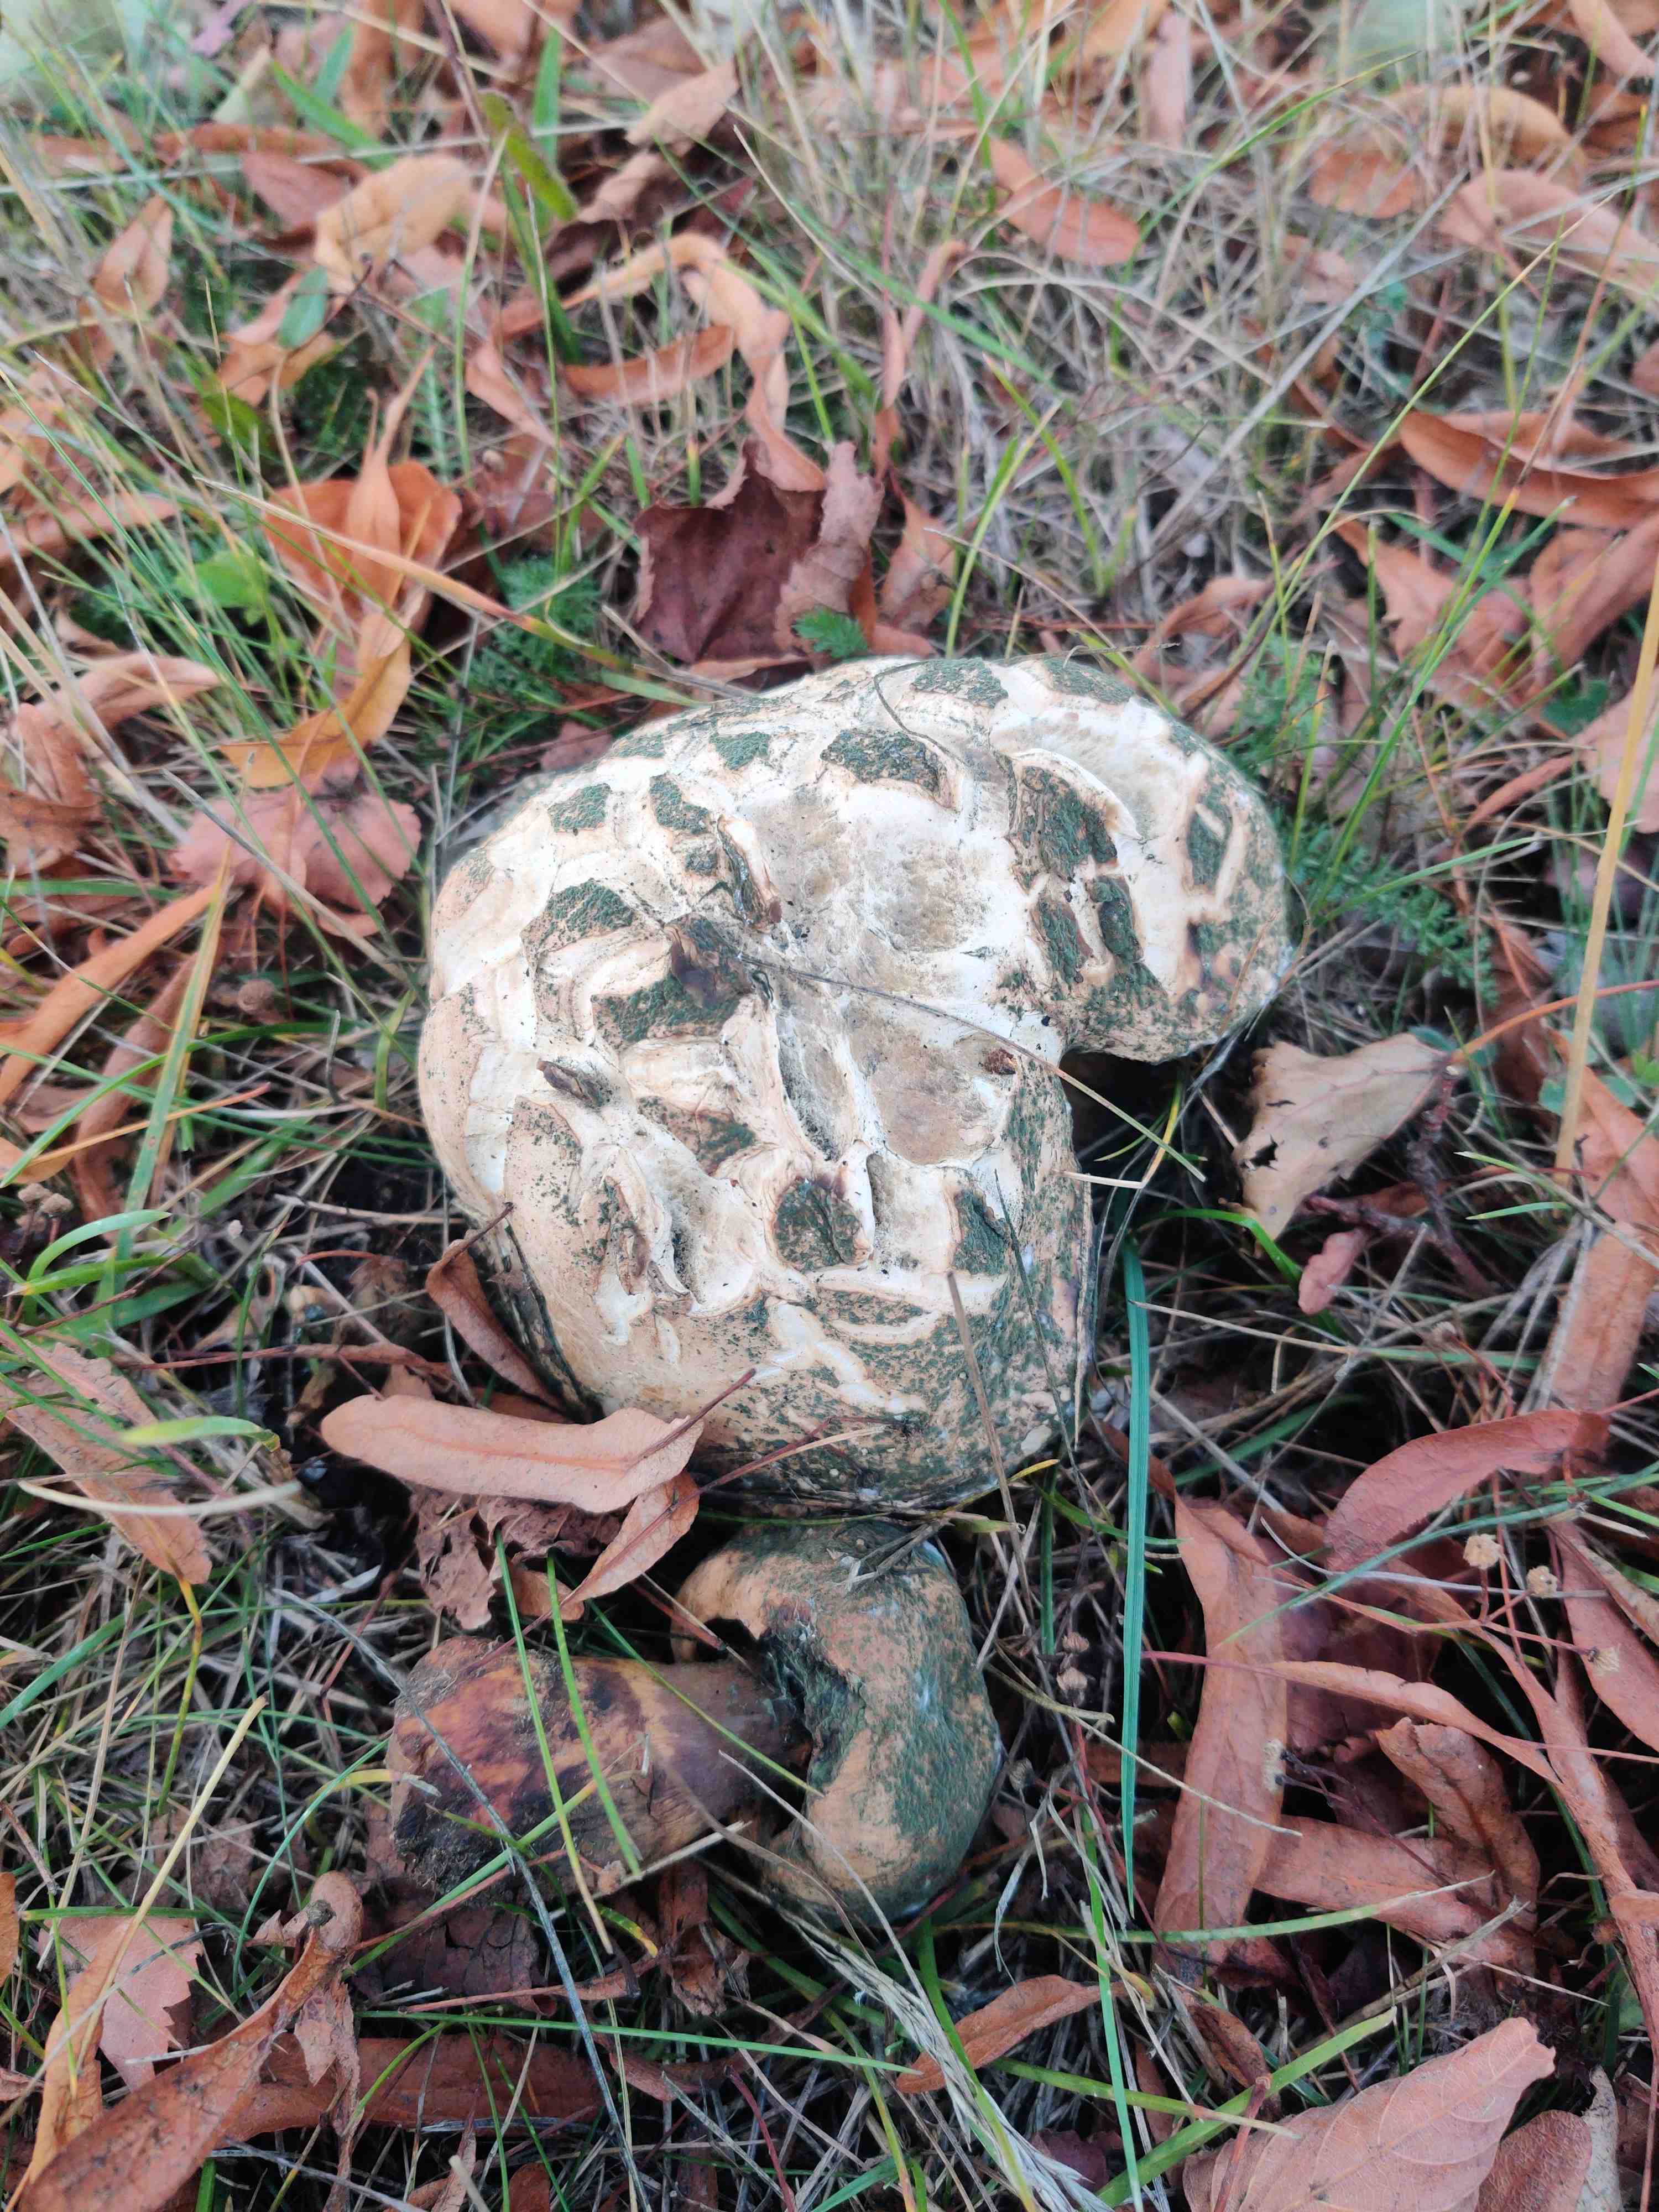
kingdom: Fungi
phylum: Basidiomycota
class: Agaricomycetes
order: Boletales
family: Boletaceae
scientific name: Boletaceae
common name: rørhatfamilien
